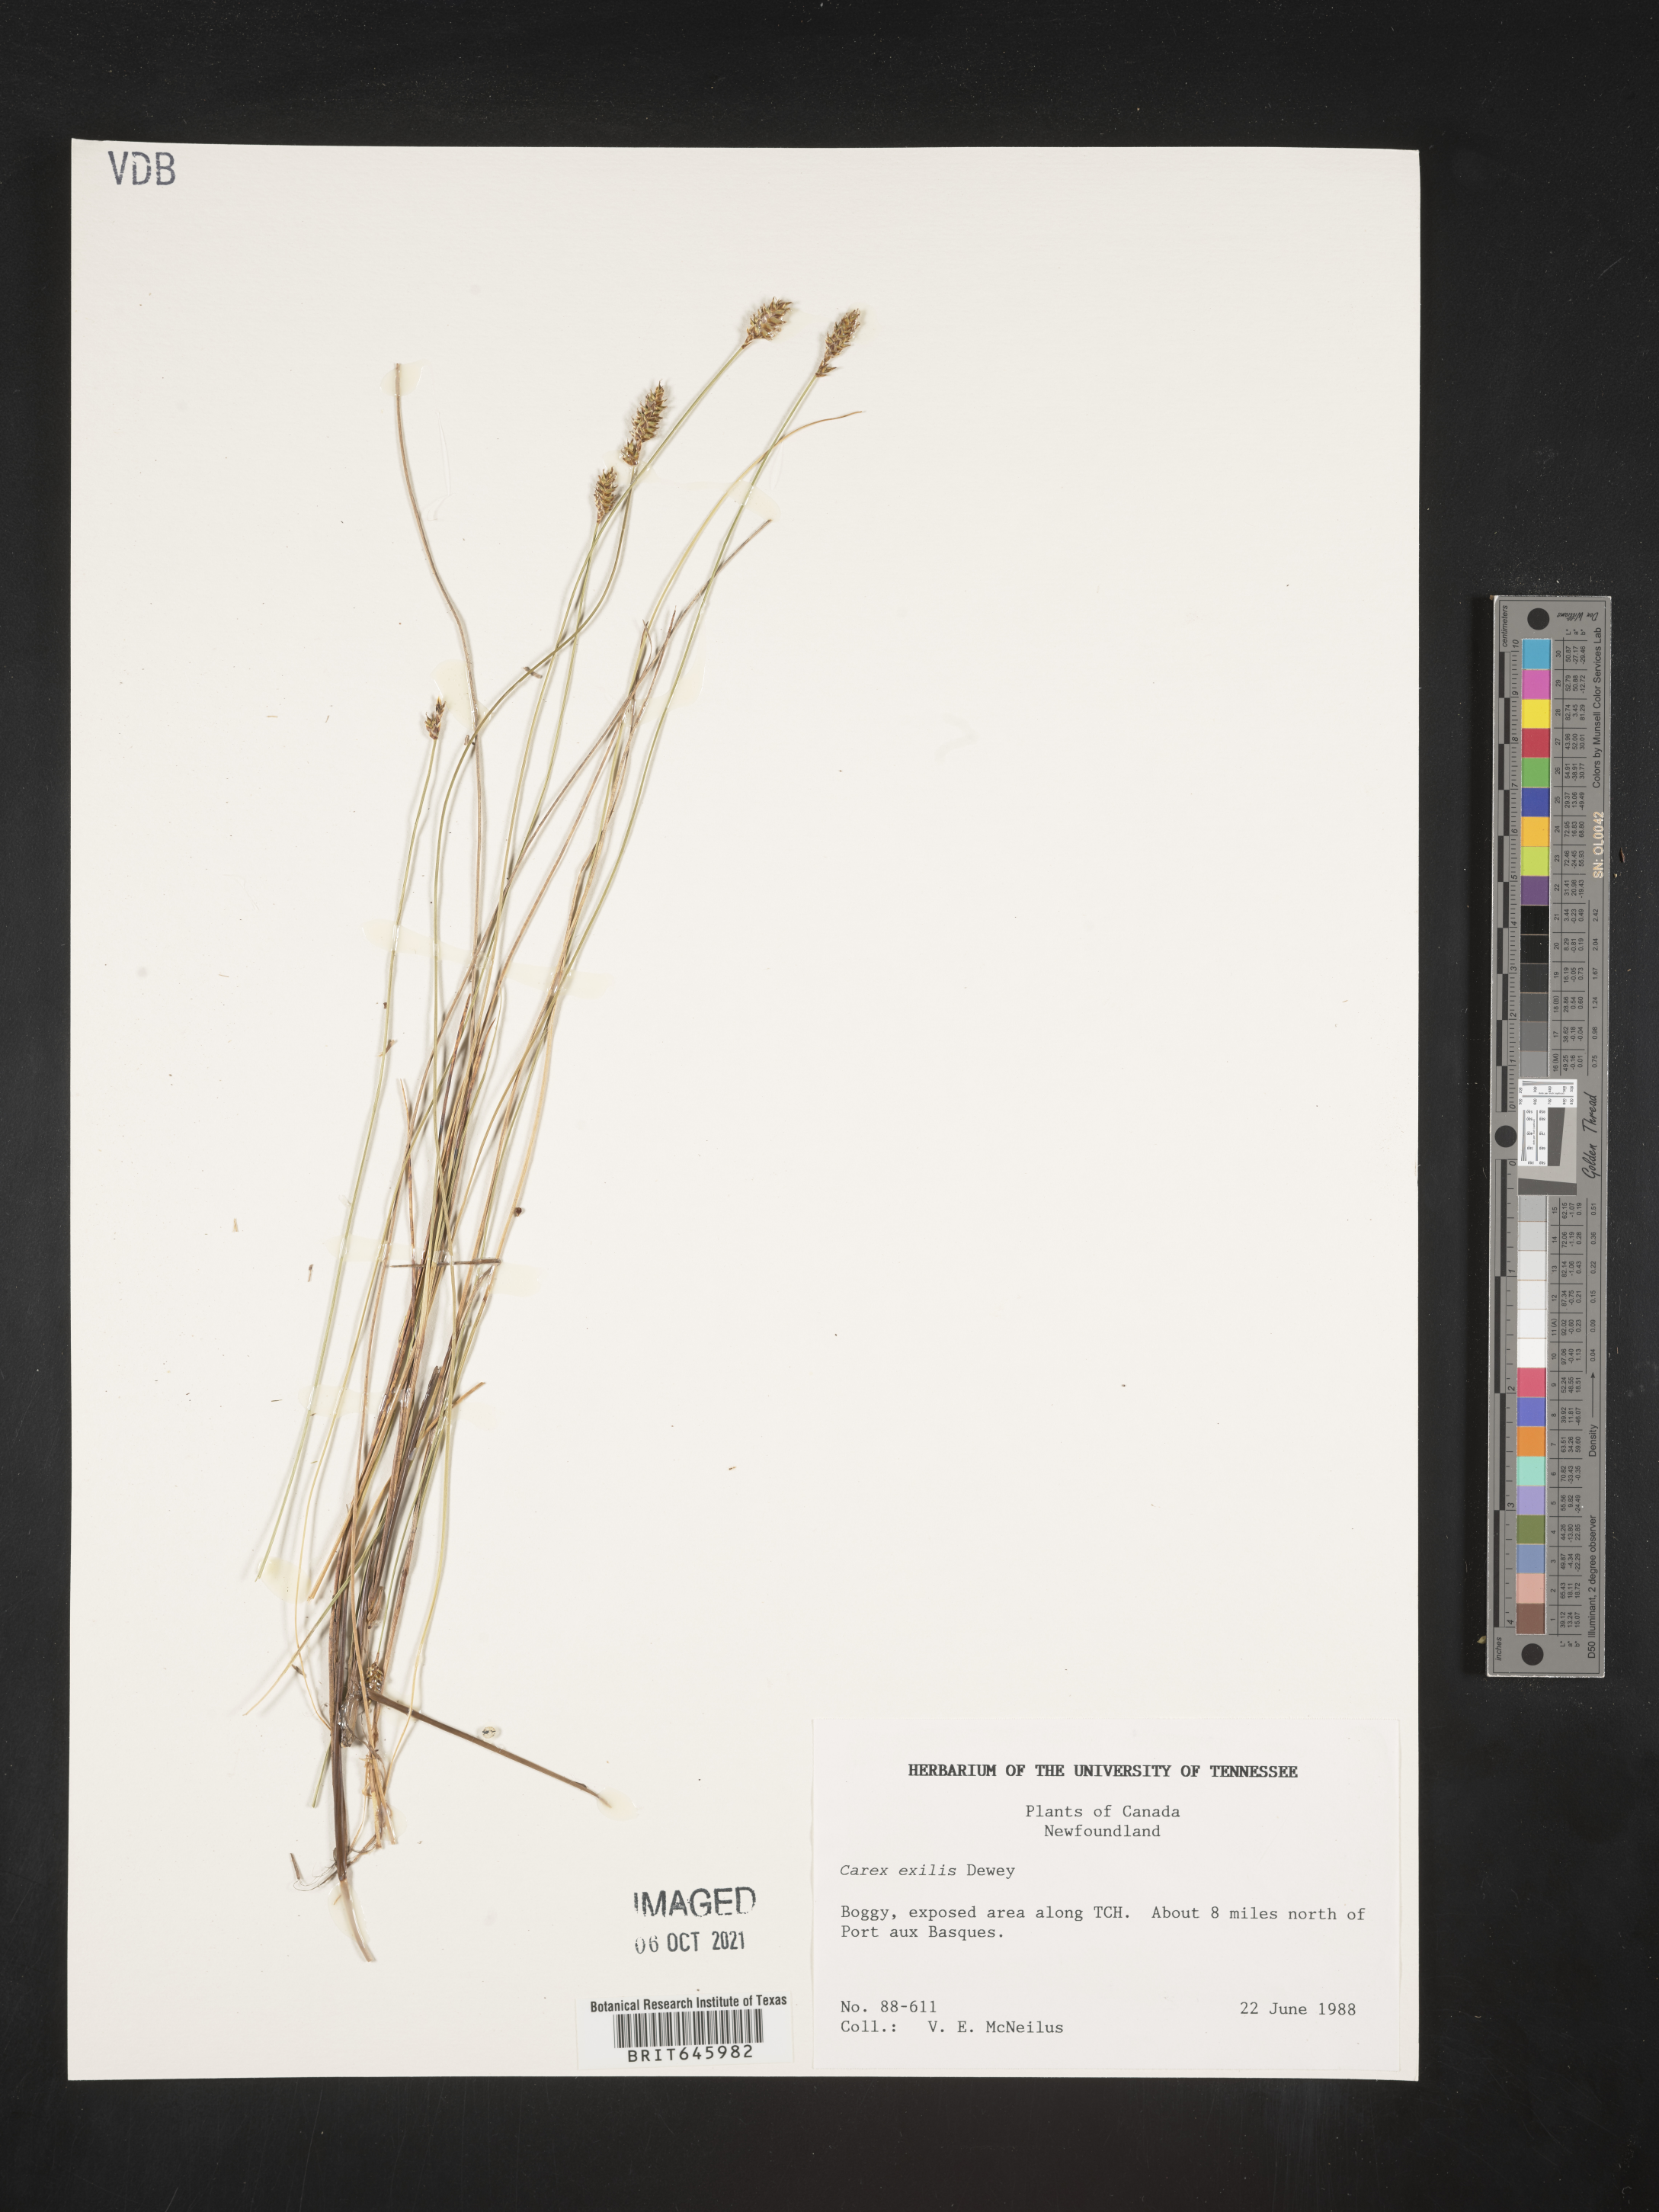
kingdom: Plantae
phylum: Tracheophyta
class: Liliopsida
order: Poales
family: Cyperaceae
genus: Carex
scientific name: Carex exilis
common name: Coastal sedge
